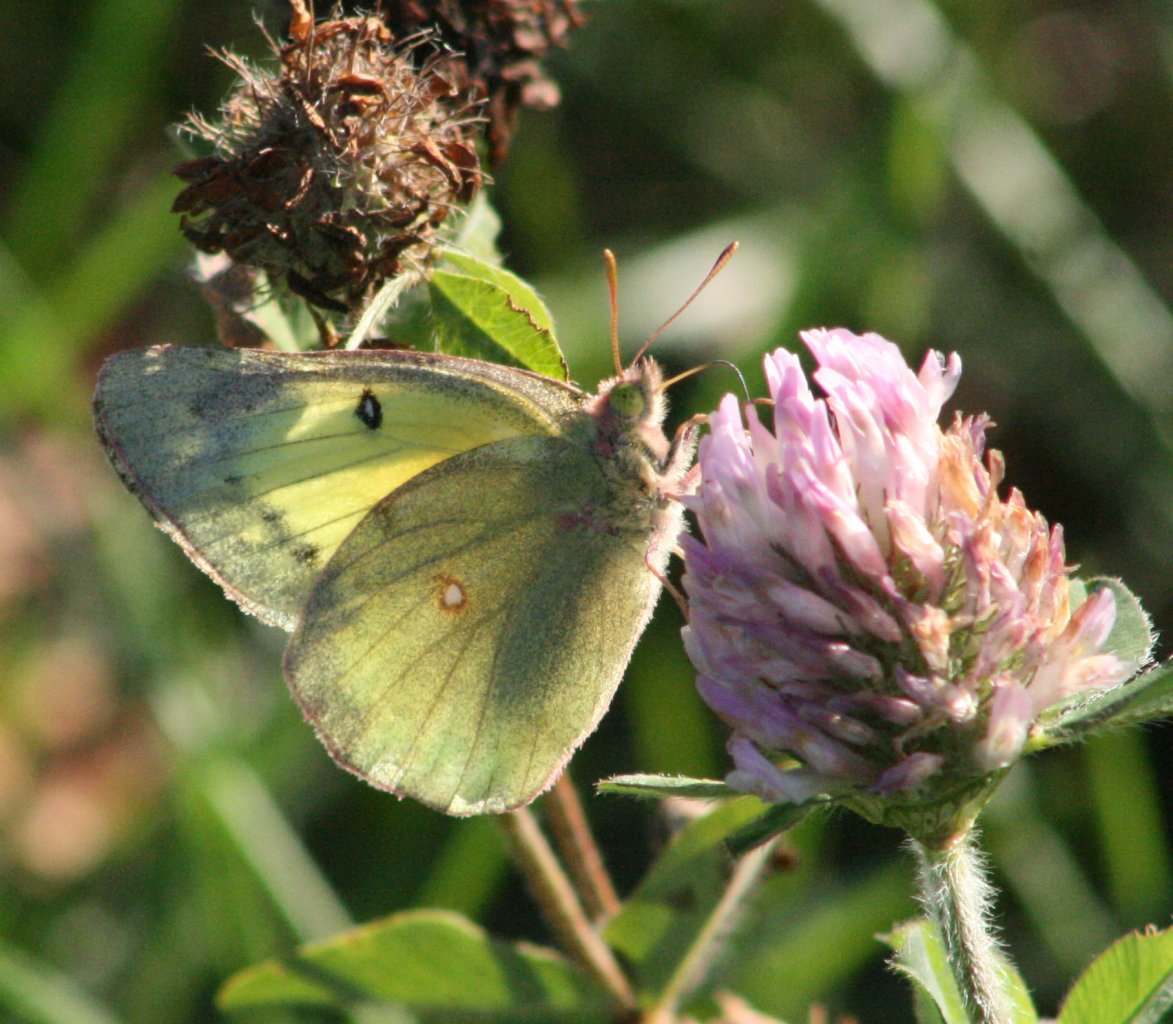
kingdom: Animalia
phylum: Arthropoda
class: Insecta
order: Lepidoptera
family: Pieridae
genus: Colias
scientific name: Colias philodice
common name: Clouded Sulphur
